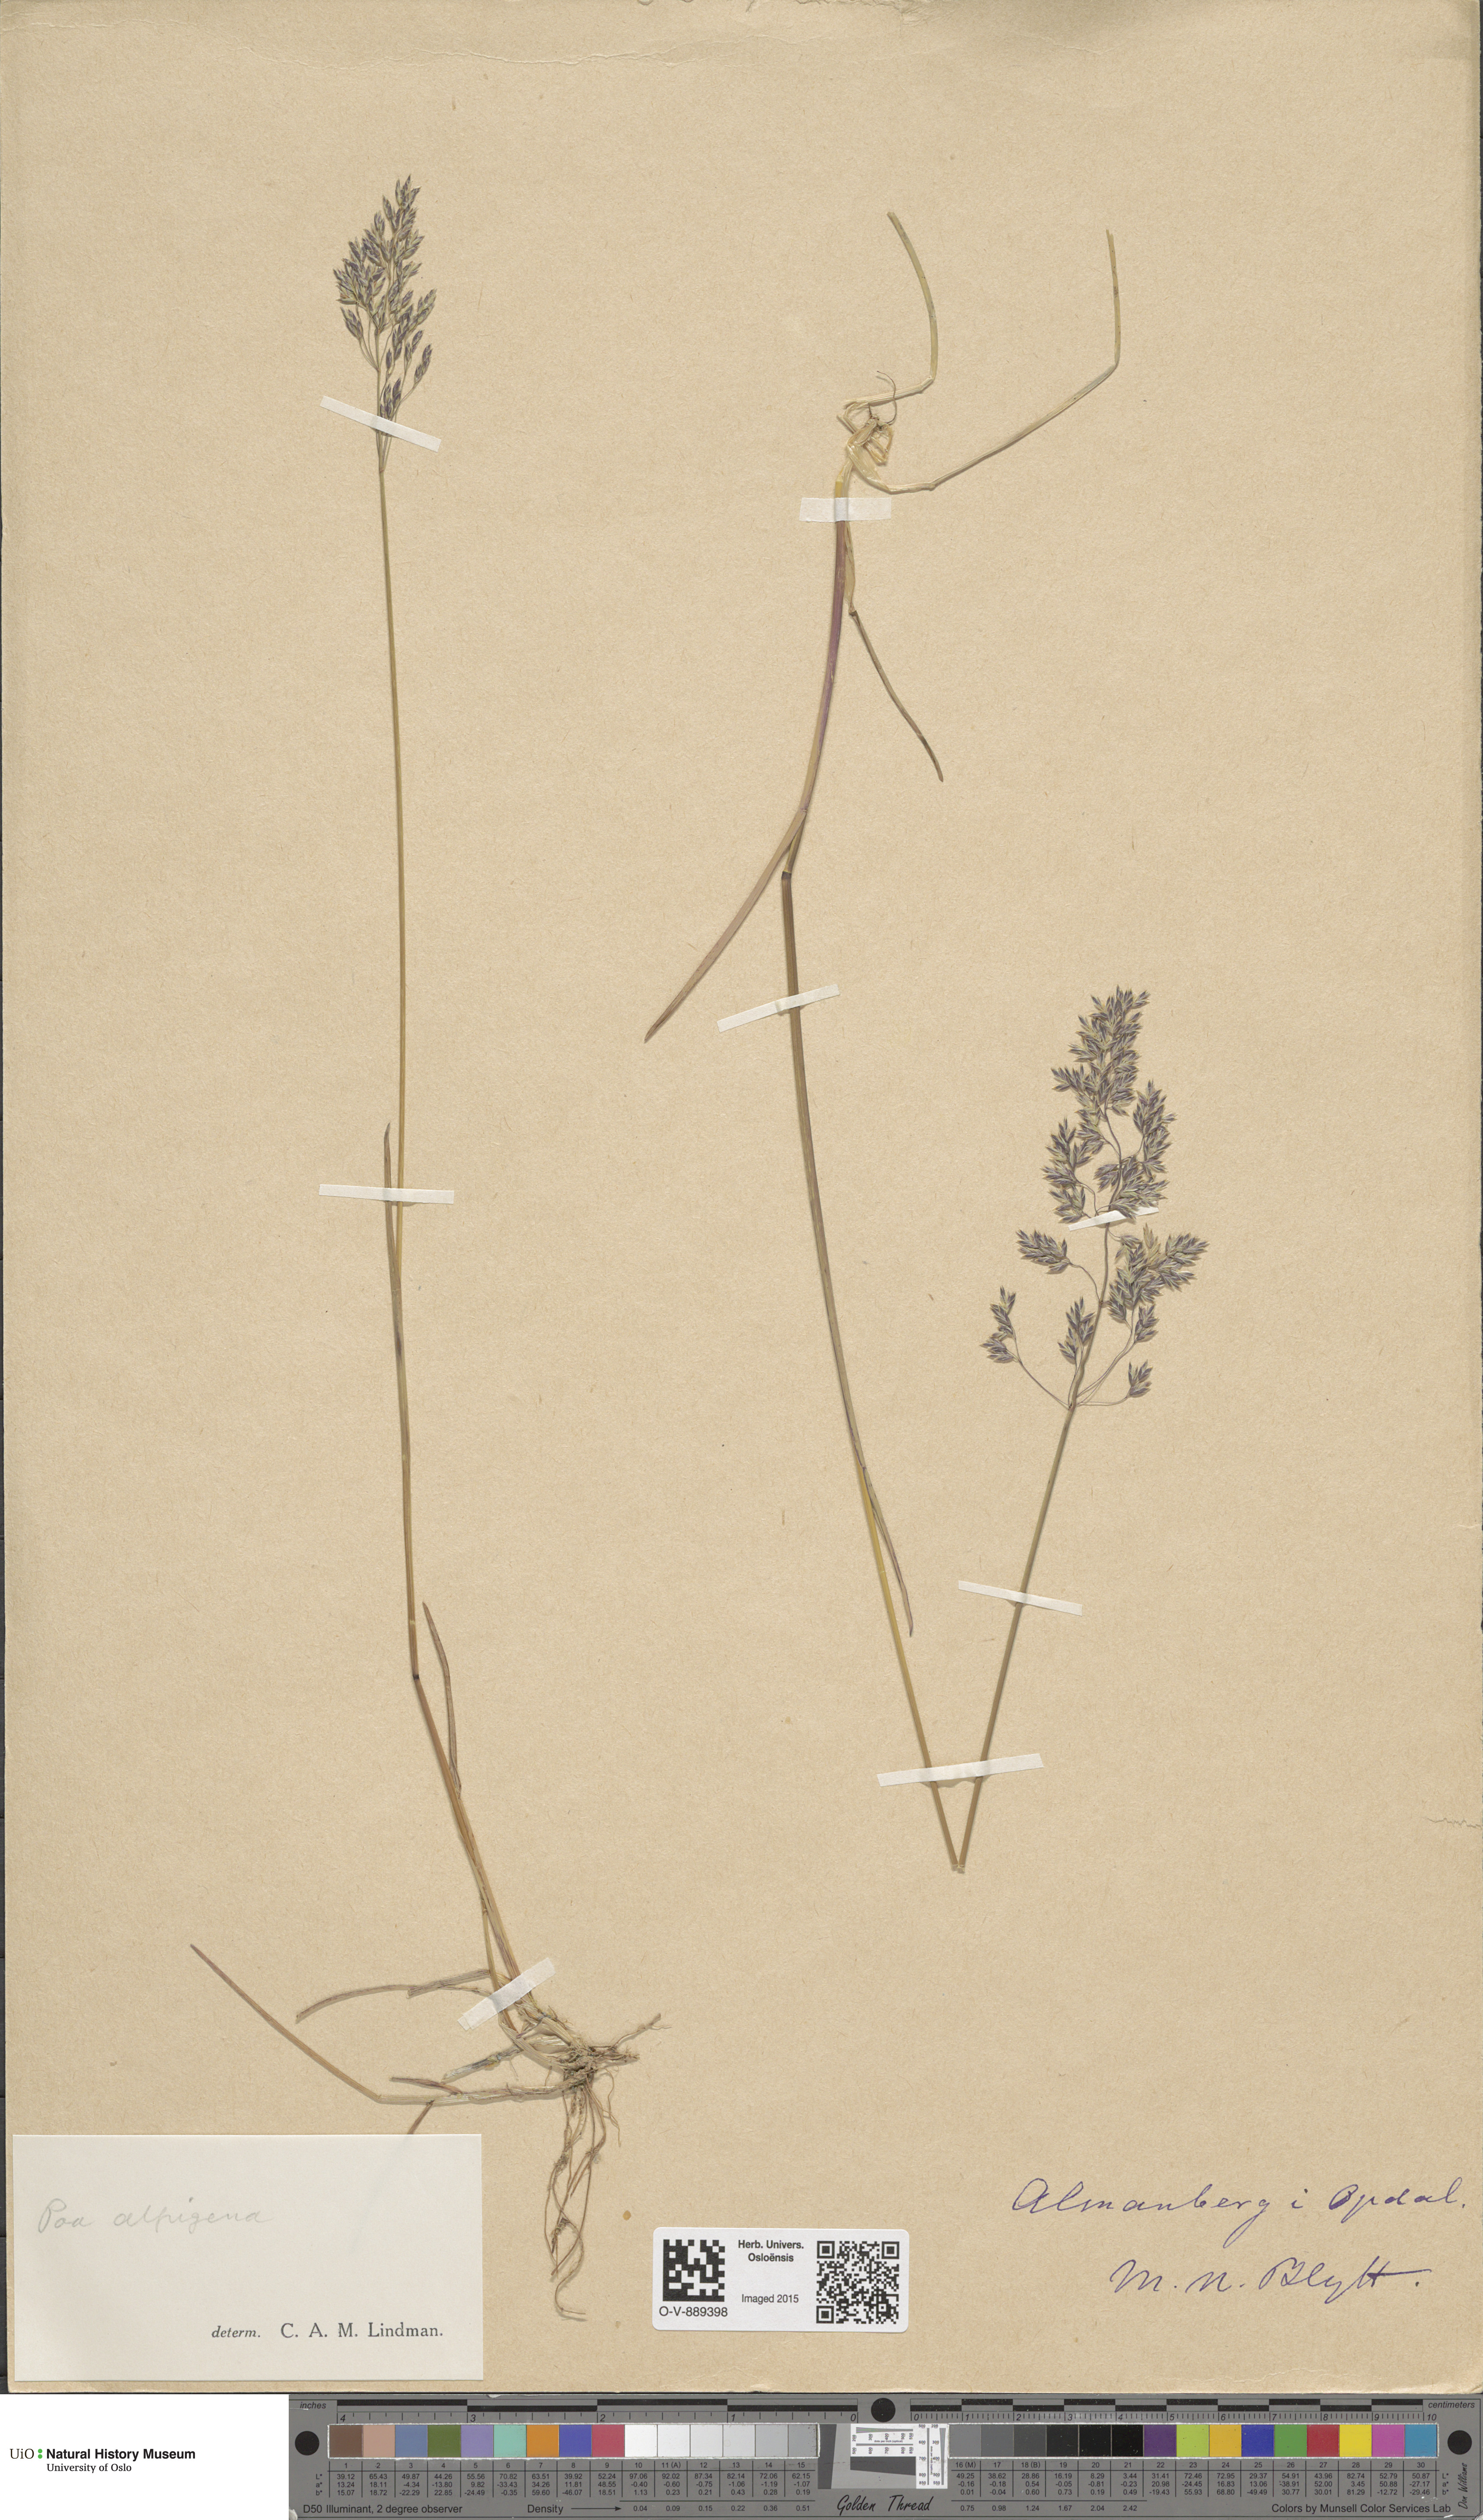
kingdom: Plantae
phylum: Tracheophyta
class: Liliopsida
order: Poales
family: Poaceae
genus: Poa
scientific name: Poa alpigena
